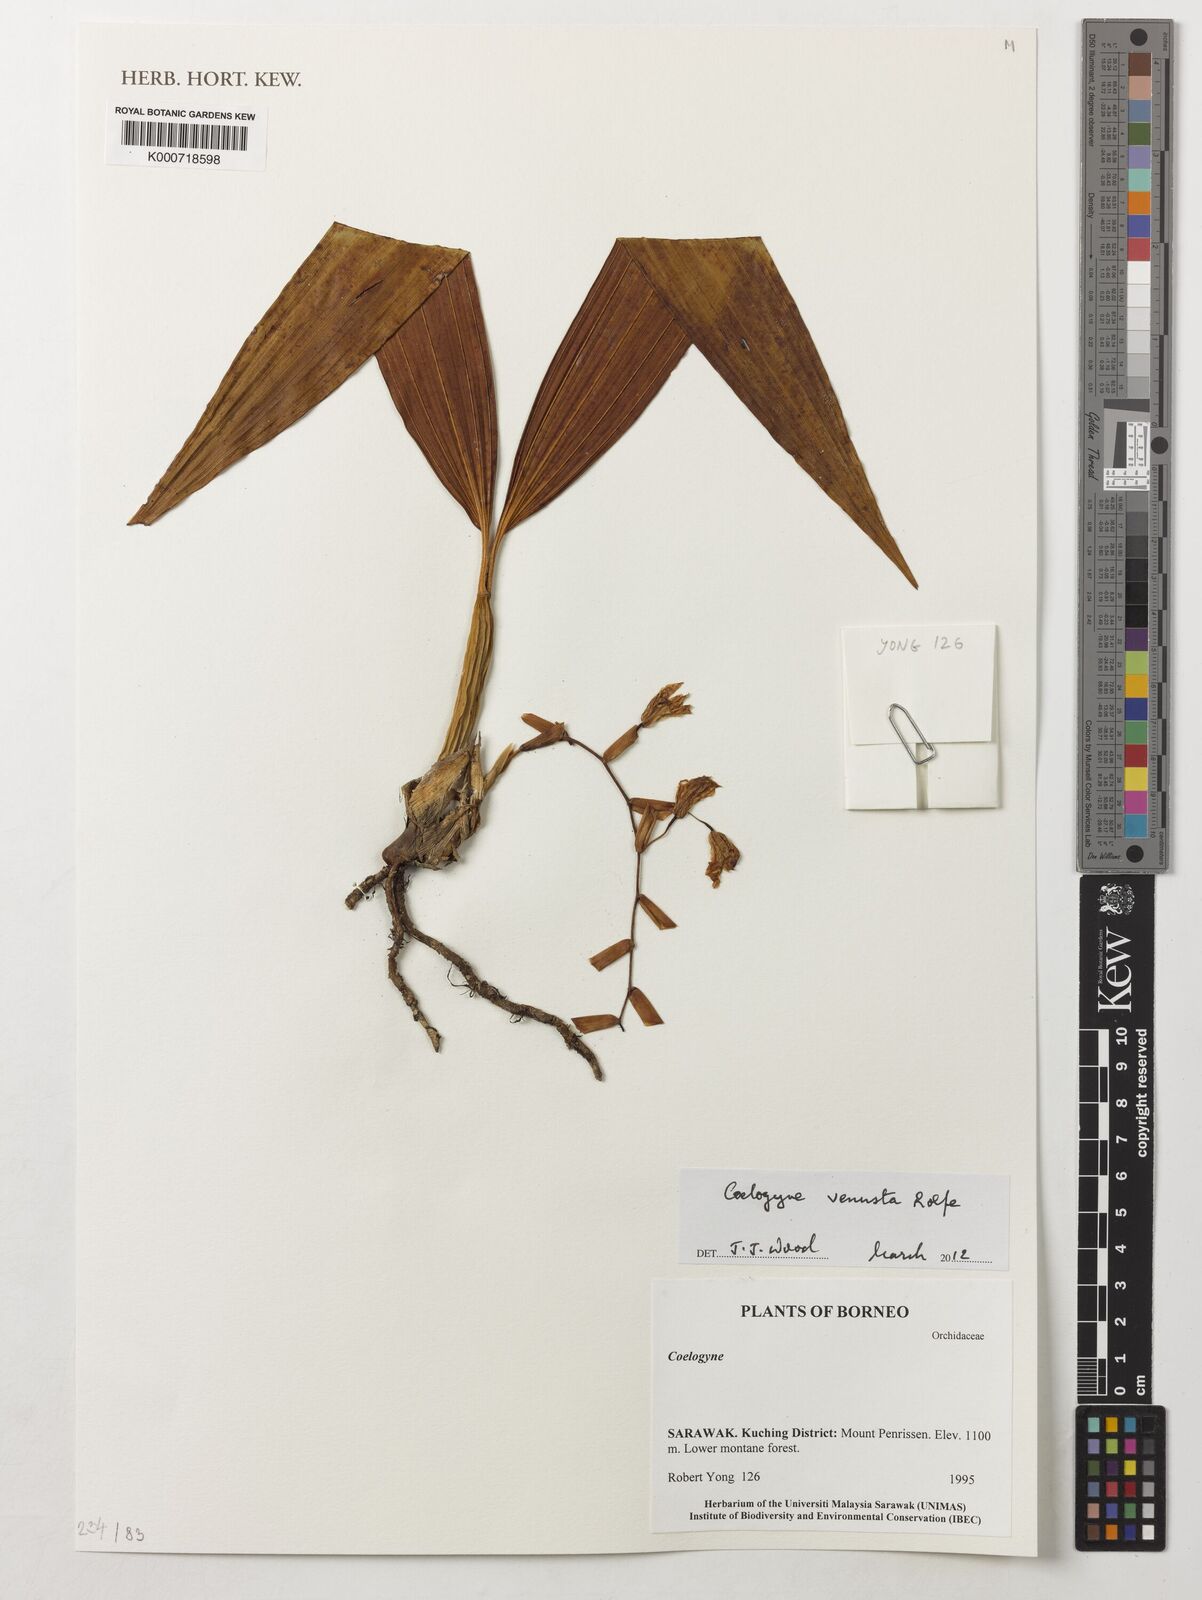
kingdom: Plantae
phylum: Tracheophyta
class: Liliopsida
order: Asparagales
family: Orchidaceae
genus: Coelogyne
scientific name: Coelogyne venusta
